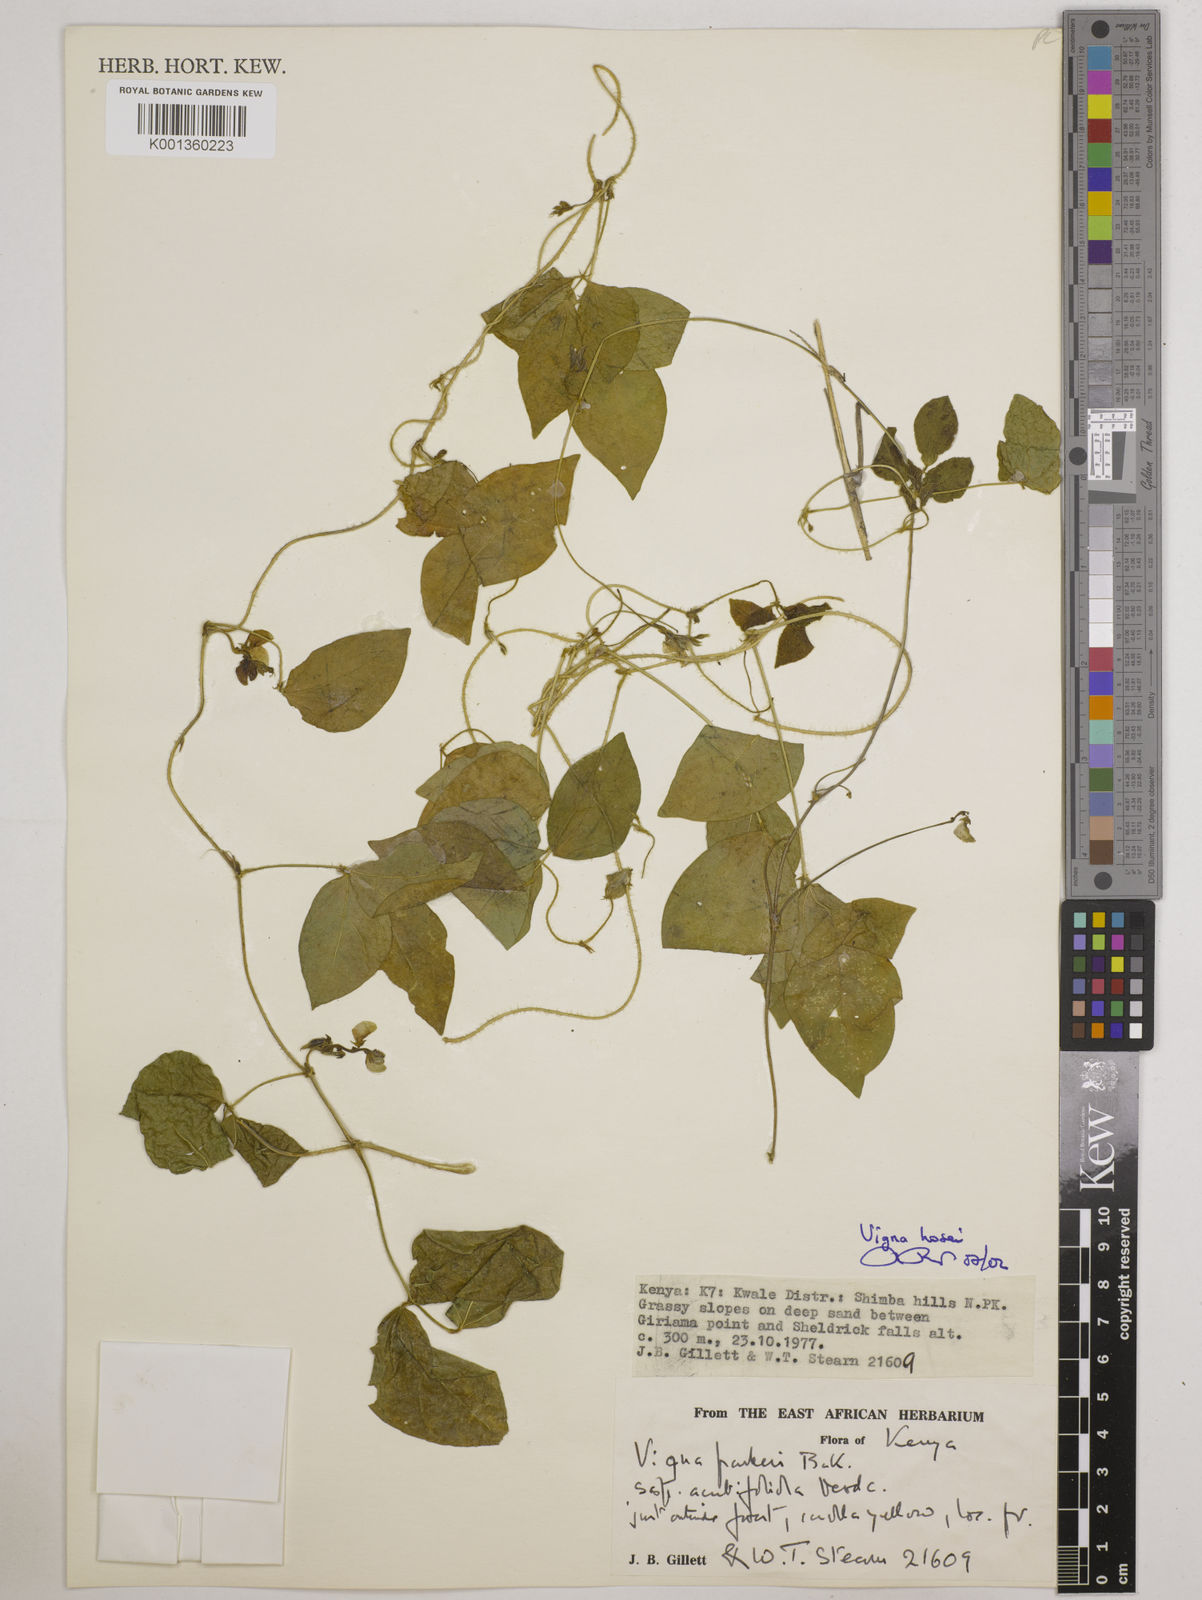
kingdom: Plantae
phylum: Tracheophyta
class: Magnoliopsida
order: Fabales
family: Fabaceae
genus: Vigna
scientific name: Vigna hosei
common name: Sarawak-bean
